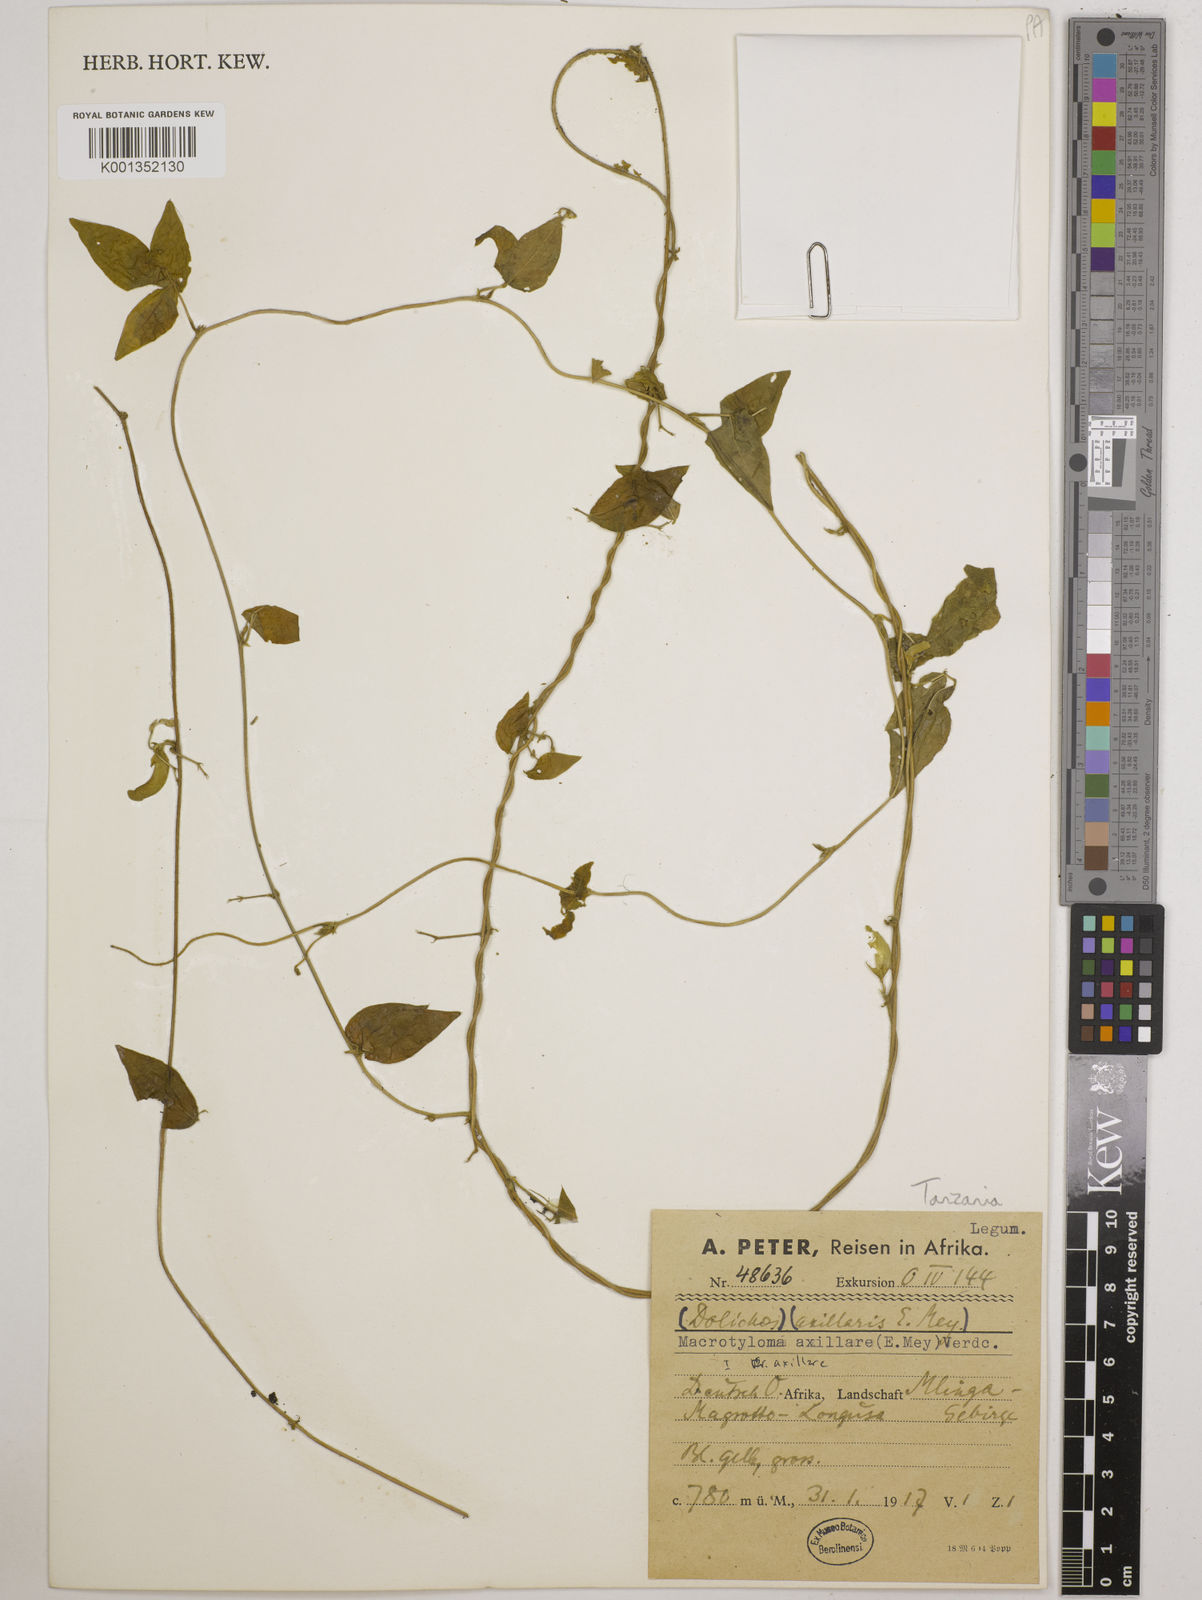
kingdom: Plantae
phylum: Tracheophyta
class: Magnoliopsida
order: Fabales
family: Fabaceae
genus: Macrotyloma
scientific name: Macrotyloma axillare
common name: Perennial horsegram
